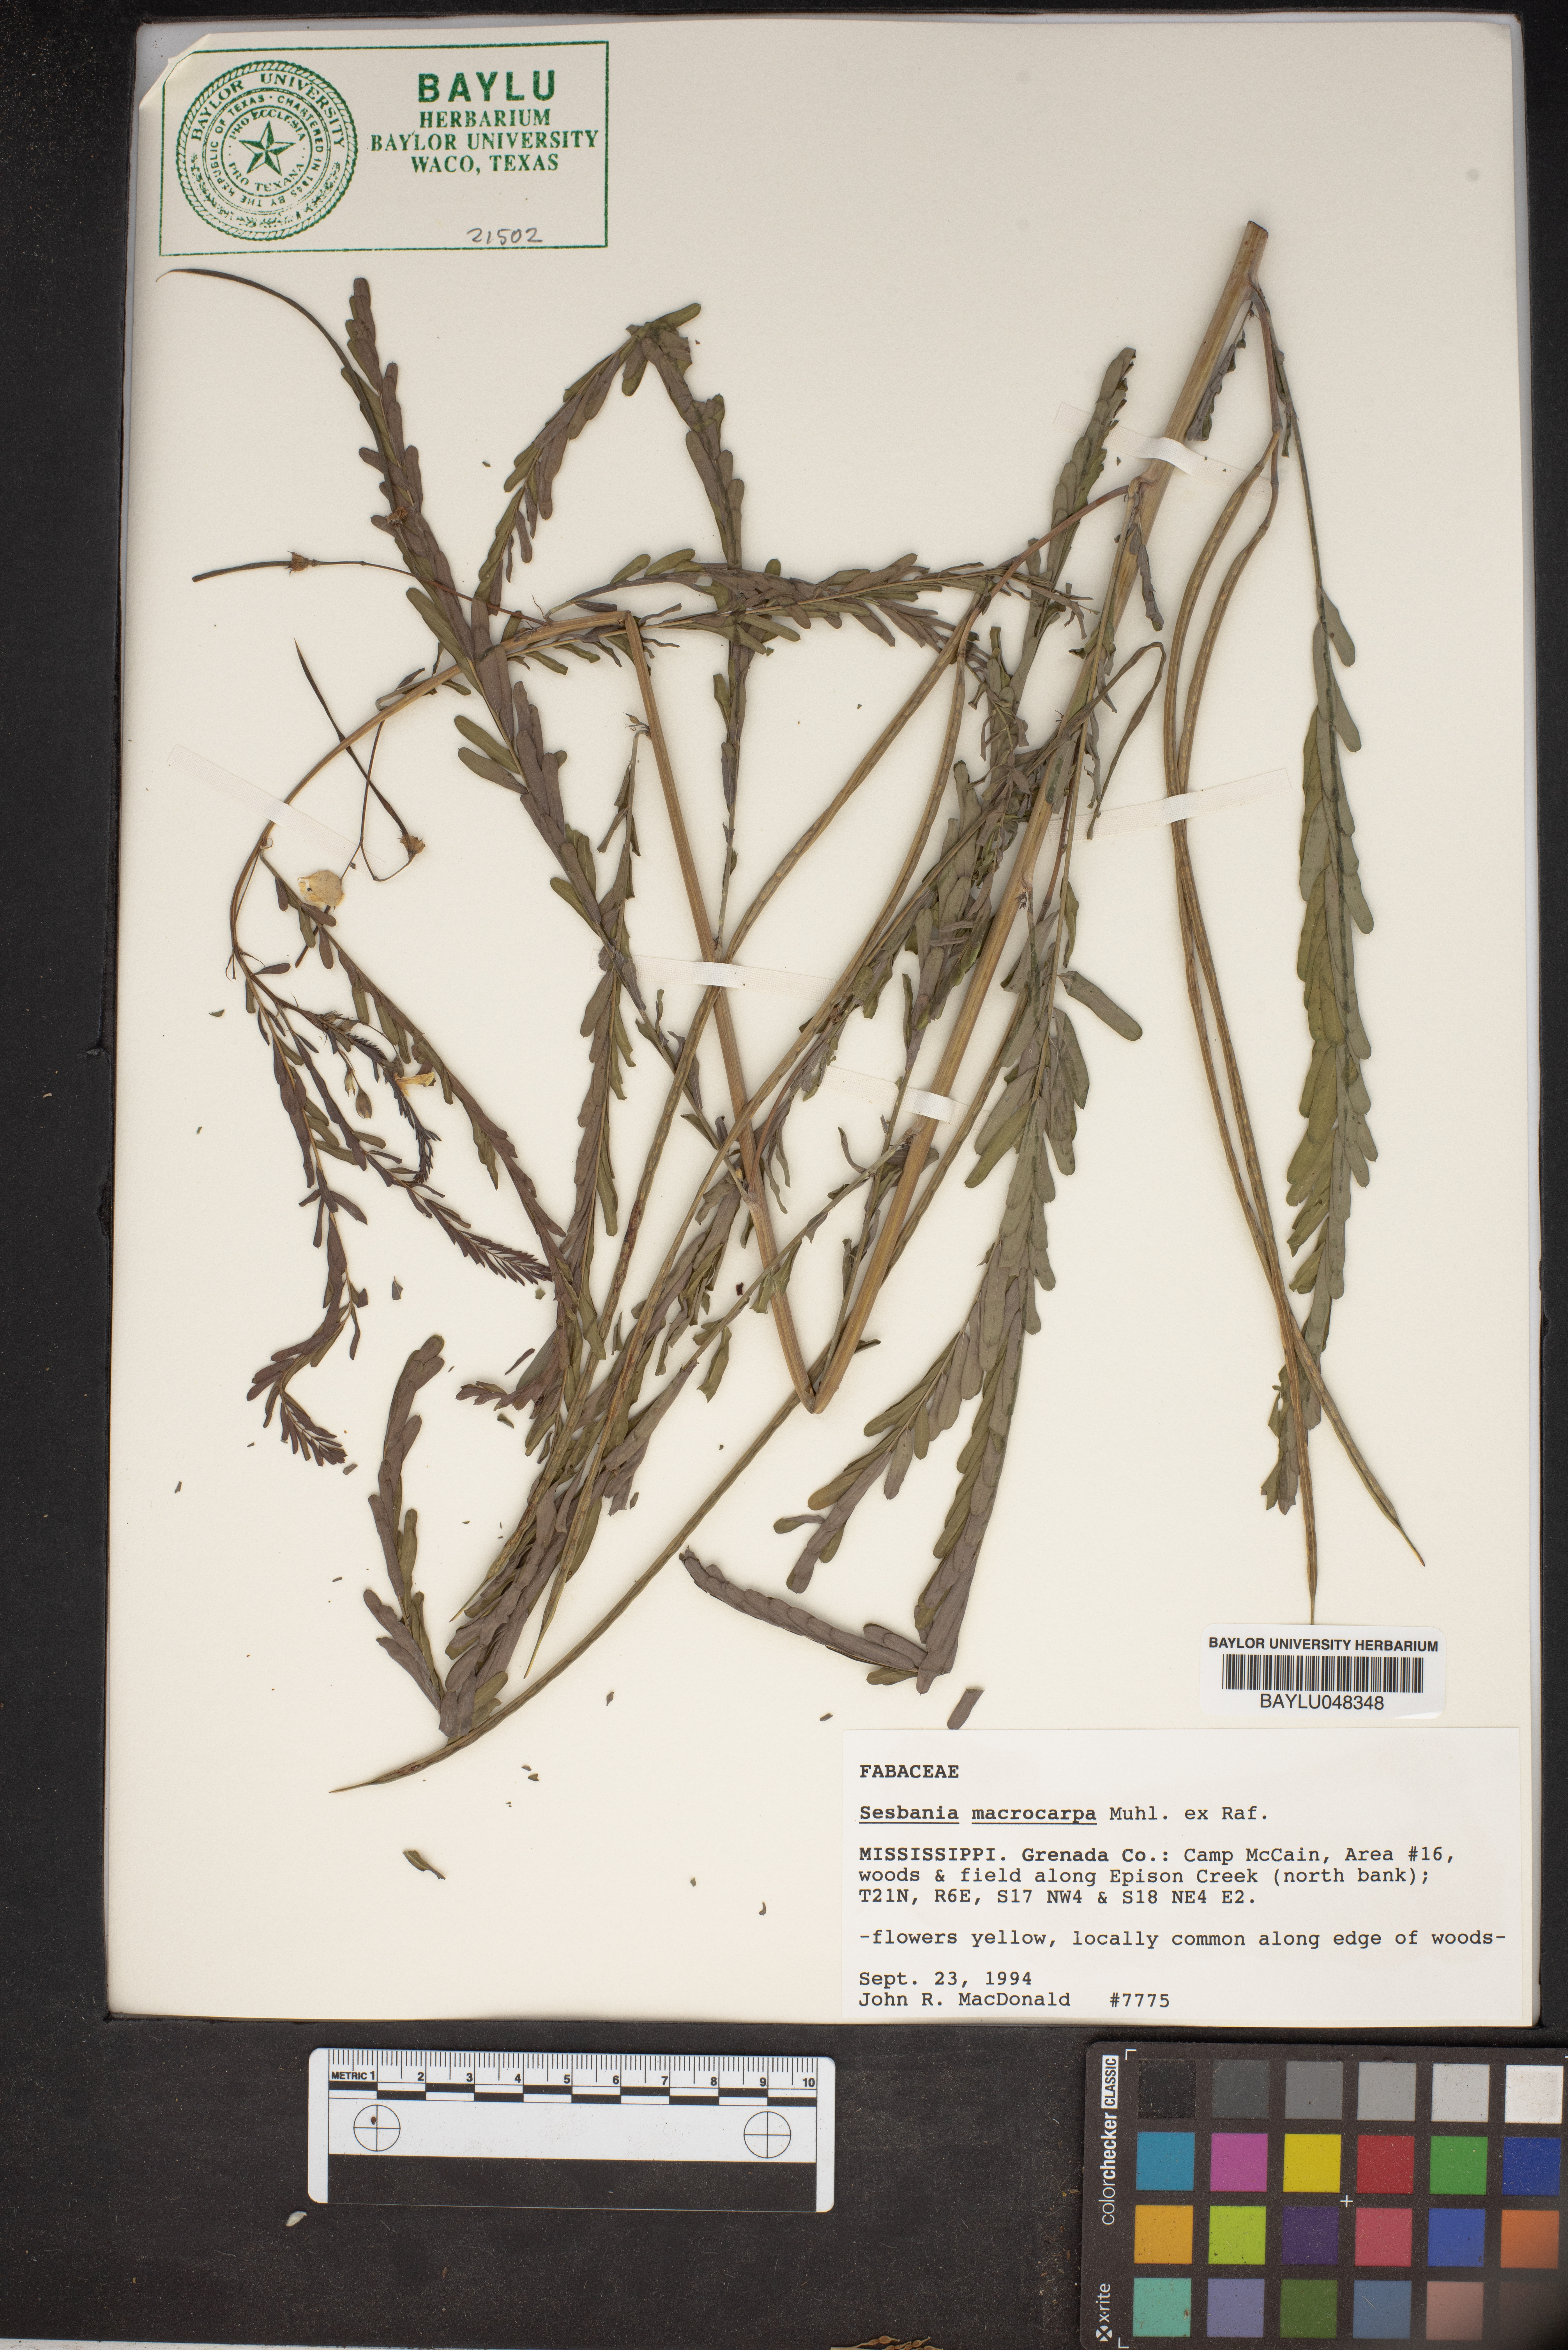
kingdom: Plantae
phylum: Tracheophyta
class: Magnoliopsida
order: Fabales
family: Fabaceae
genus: Sesbania
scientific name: Sesbania vesicaria
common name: Bagpod
